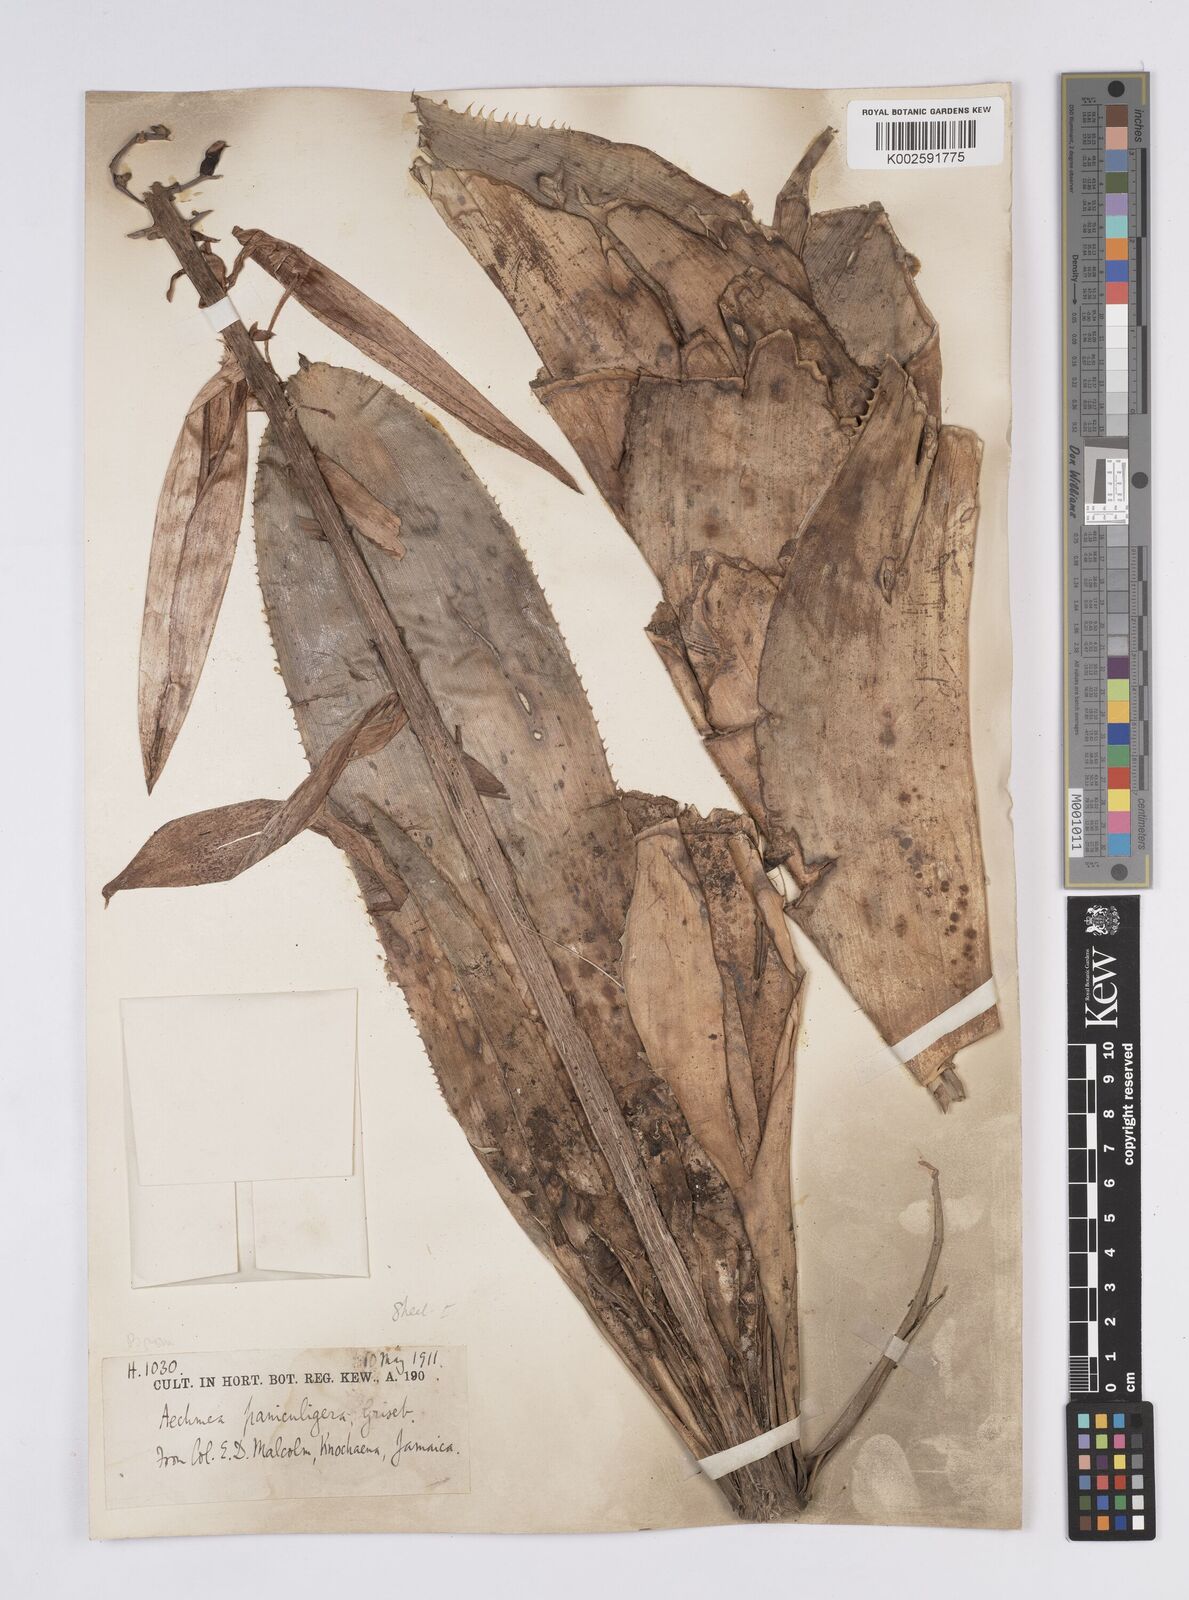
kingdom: Plantae
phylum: Tracheophyta
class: Liliopsida
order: Poales
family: Bromeliaceae
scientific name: Bromeliaceae
